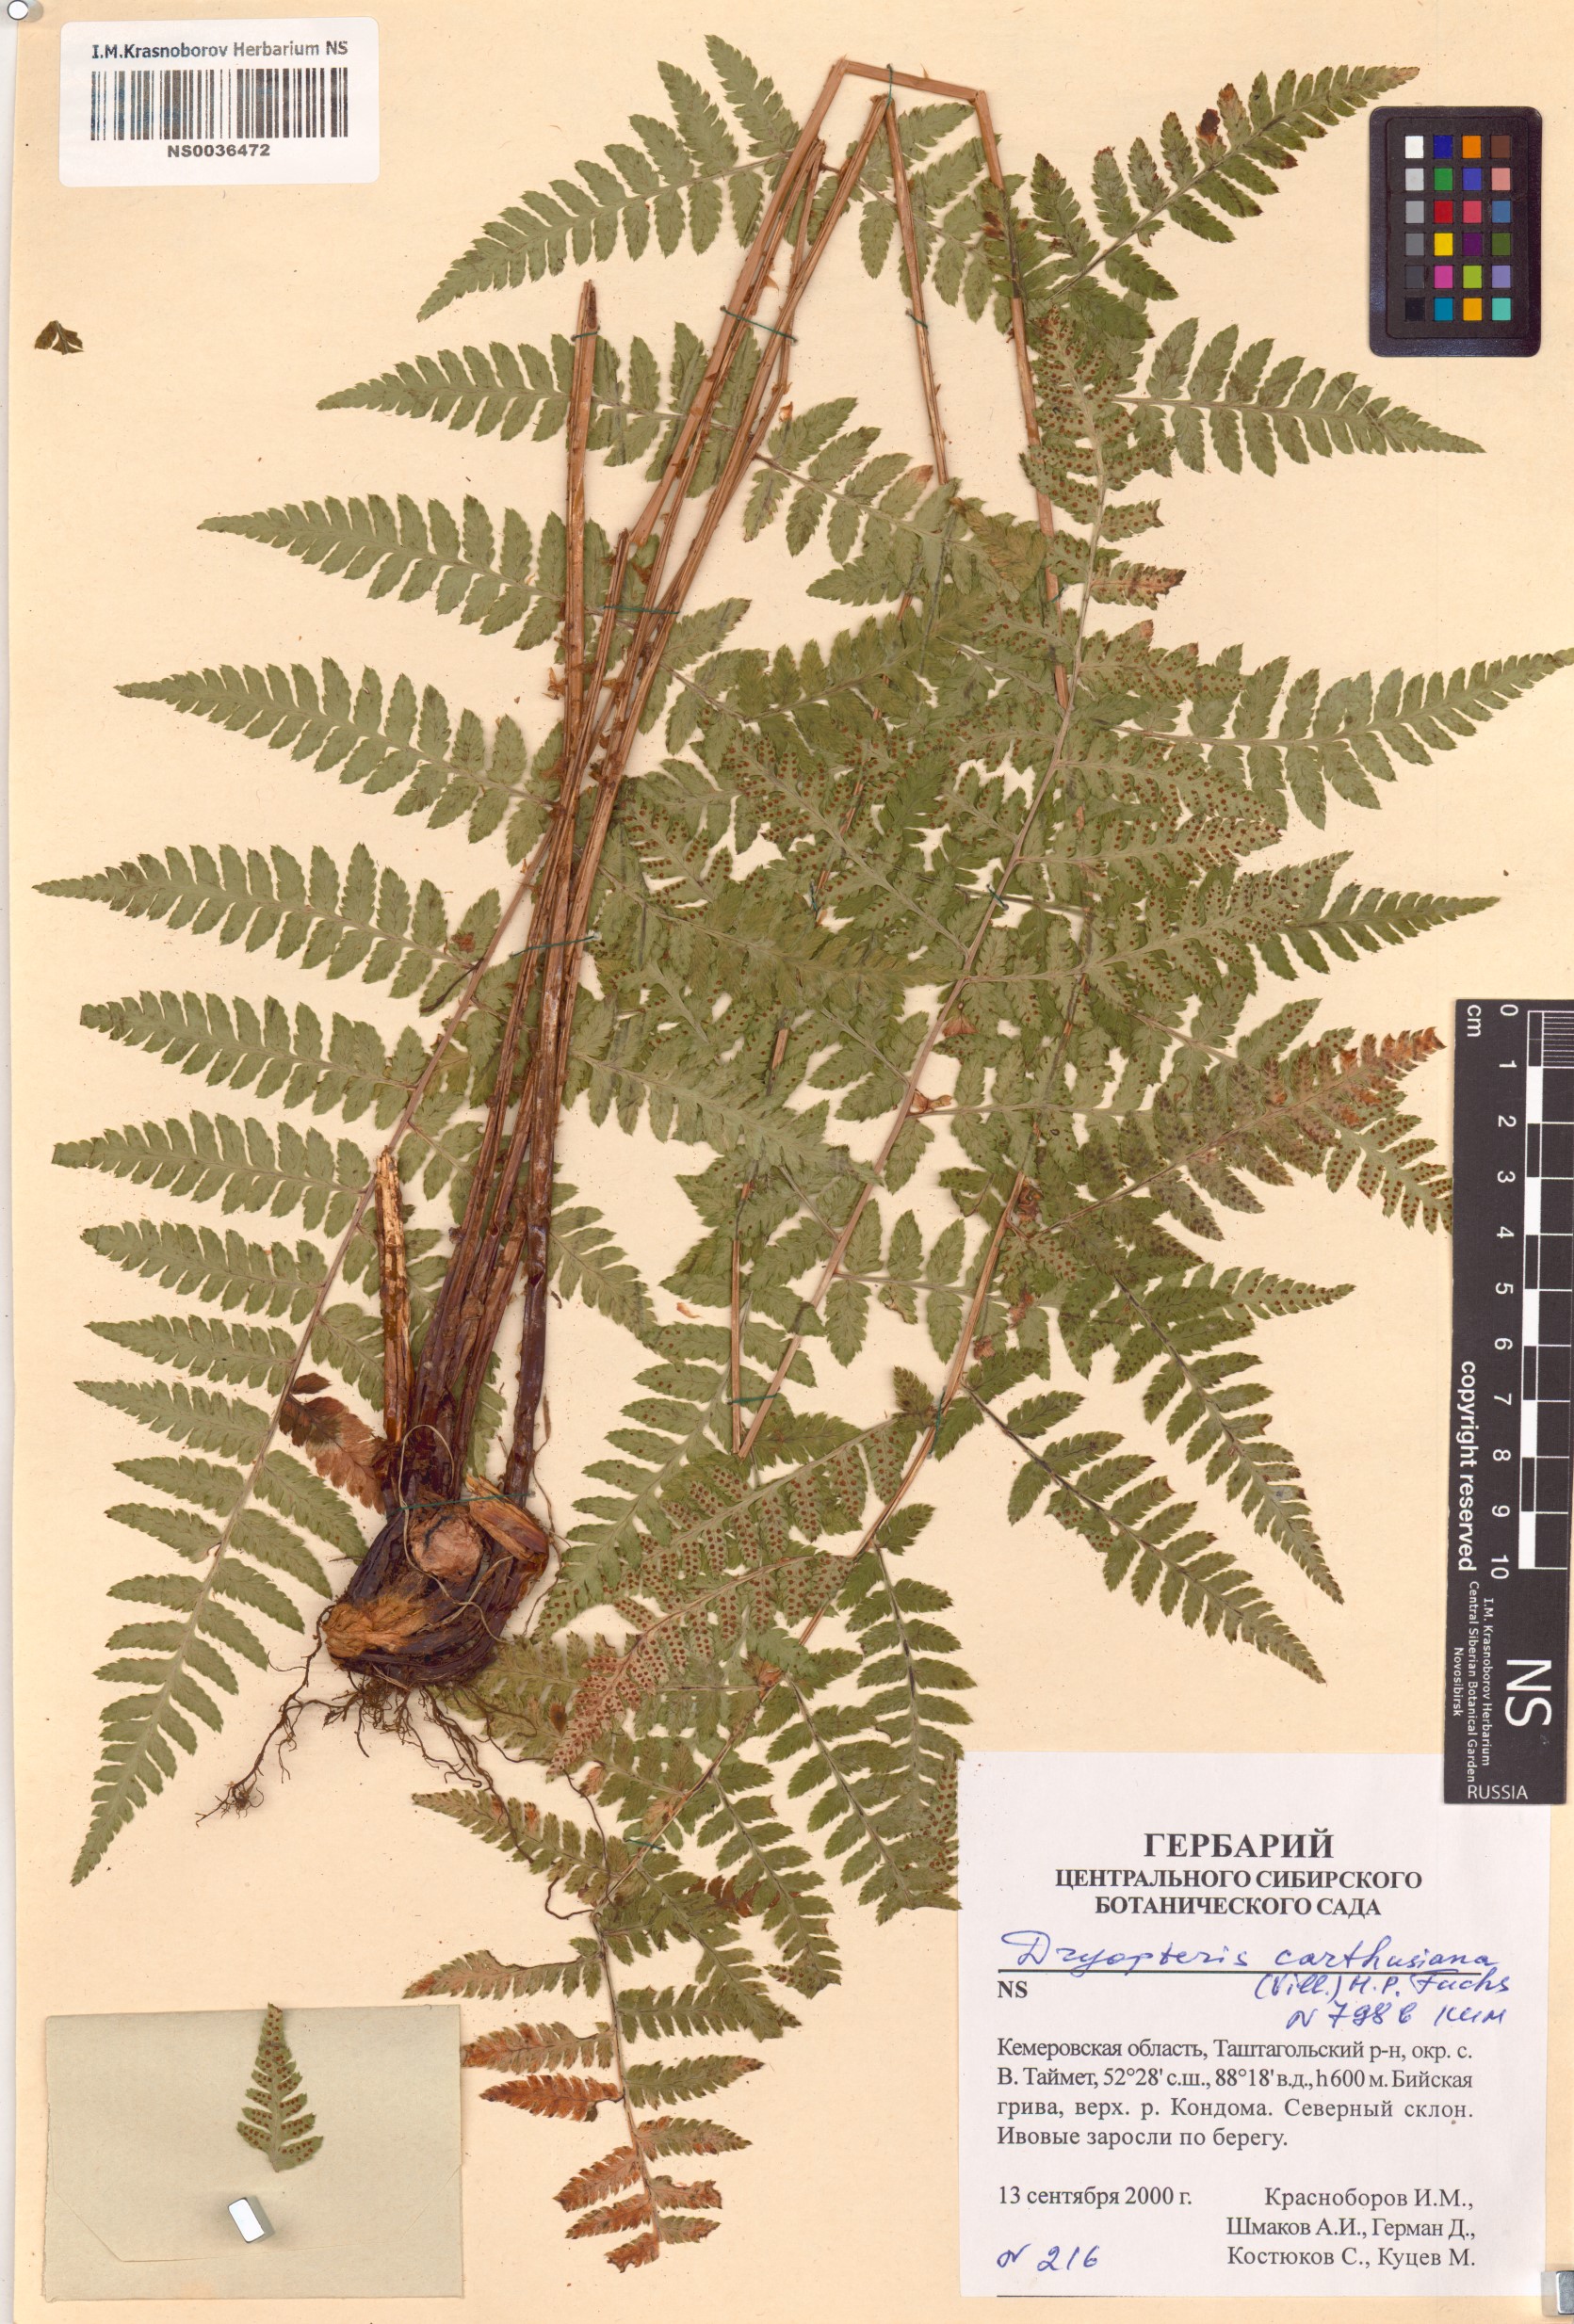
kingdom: Plantae
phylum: Tracheophyta
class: Polypodiopsida
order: Polypodiales
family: Dryopteridaceae
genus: Dryopteris
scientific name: Dryopteris carthusiana
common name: Narrow buckler-fern
